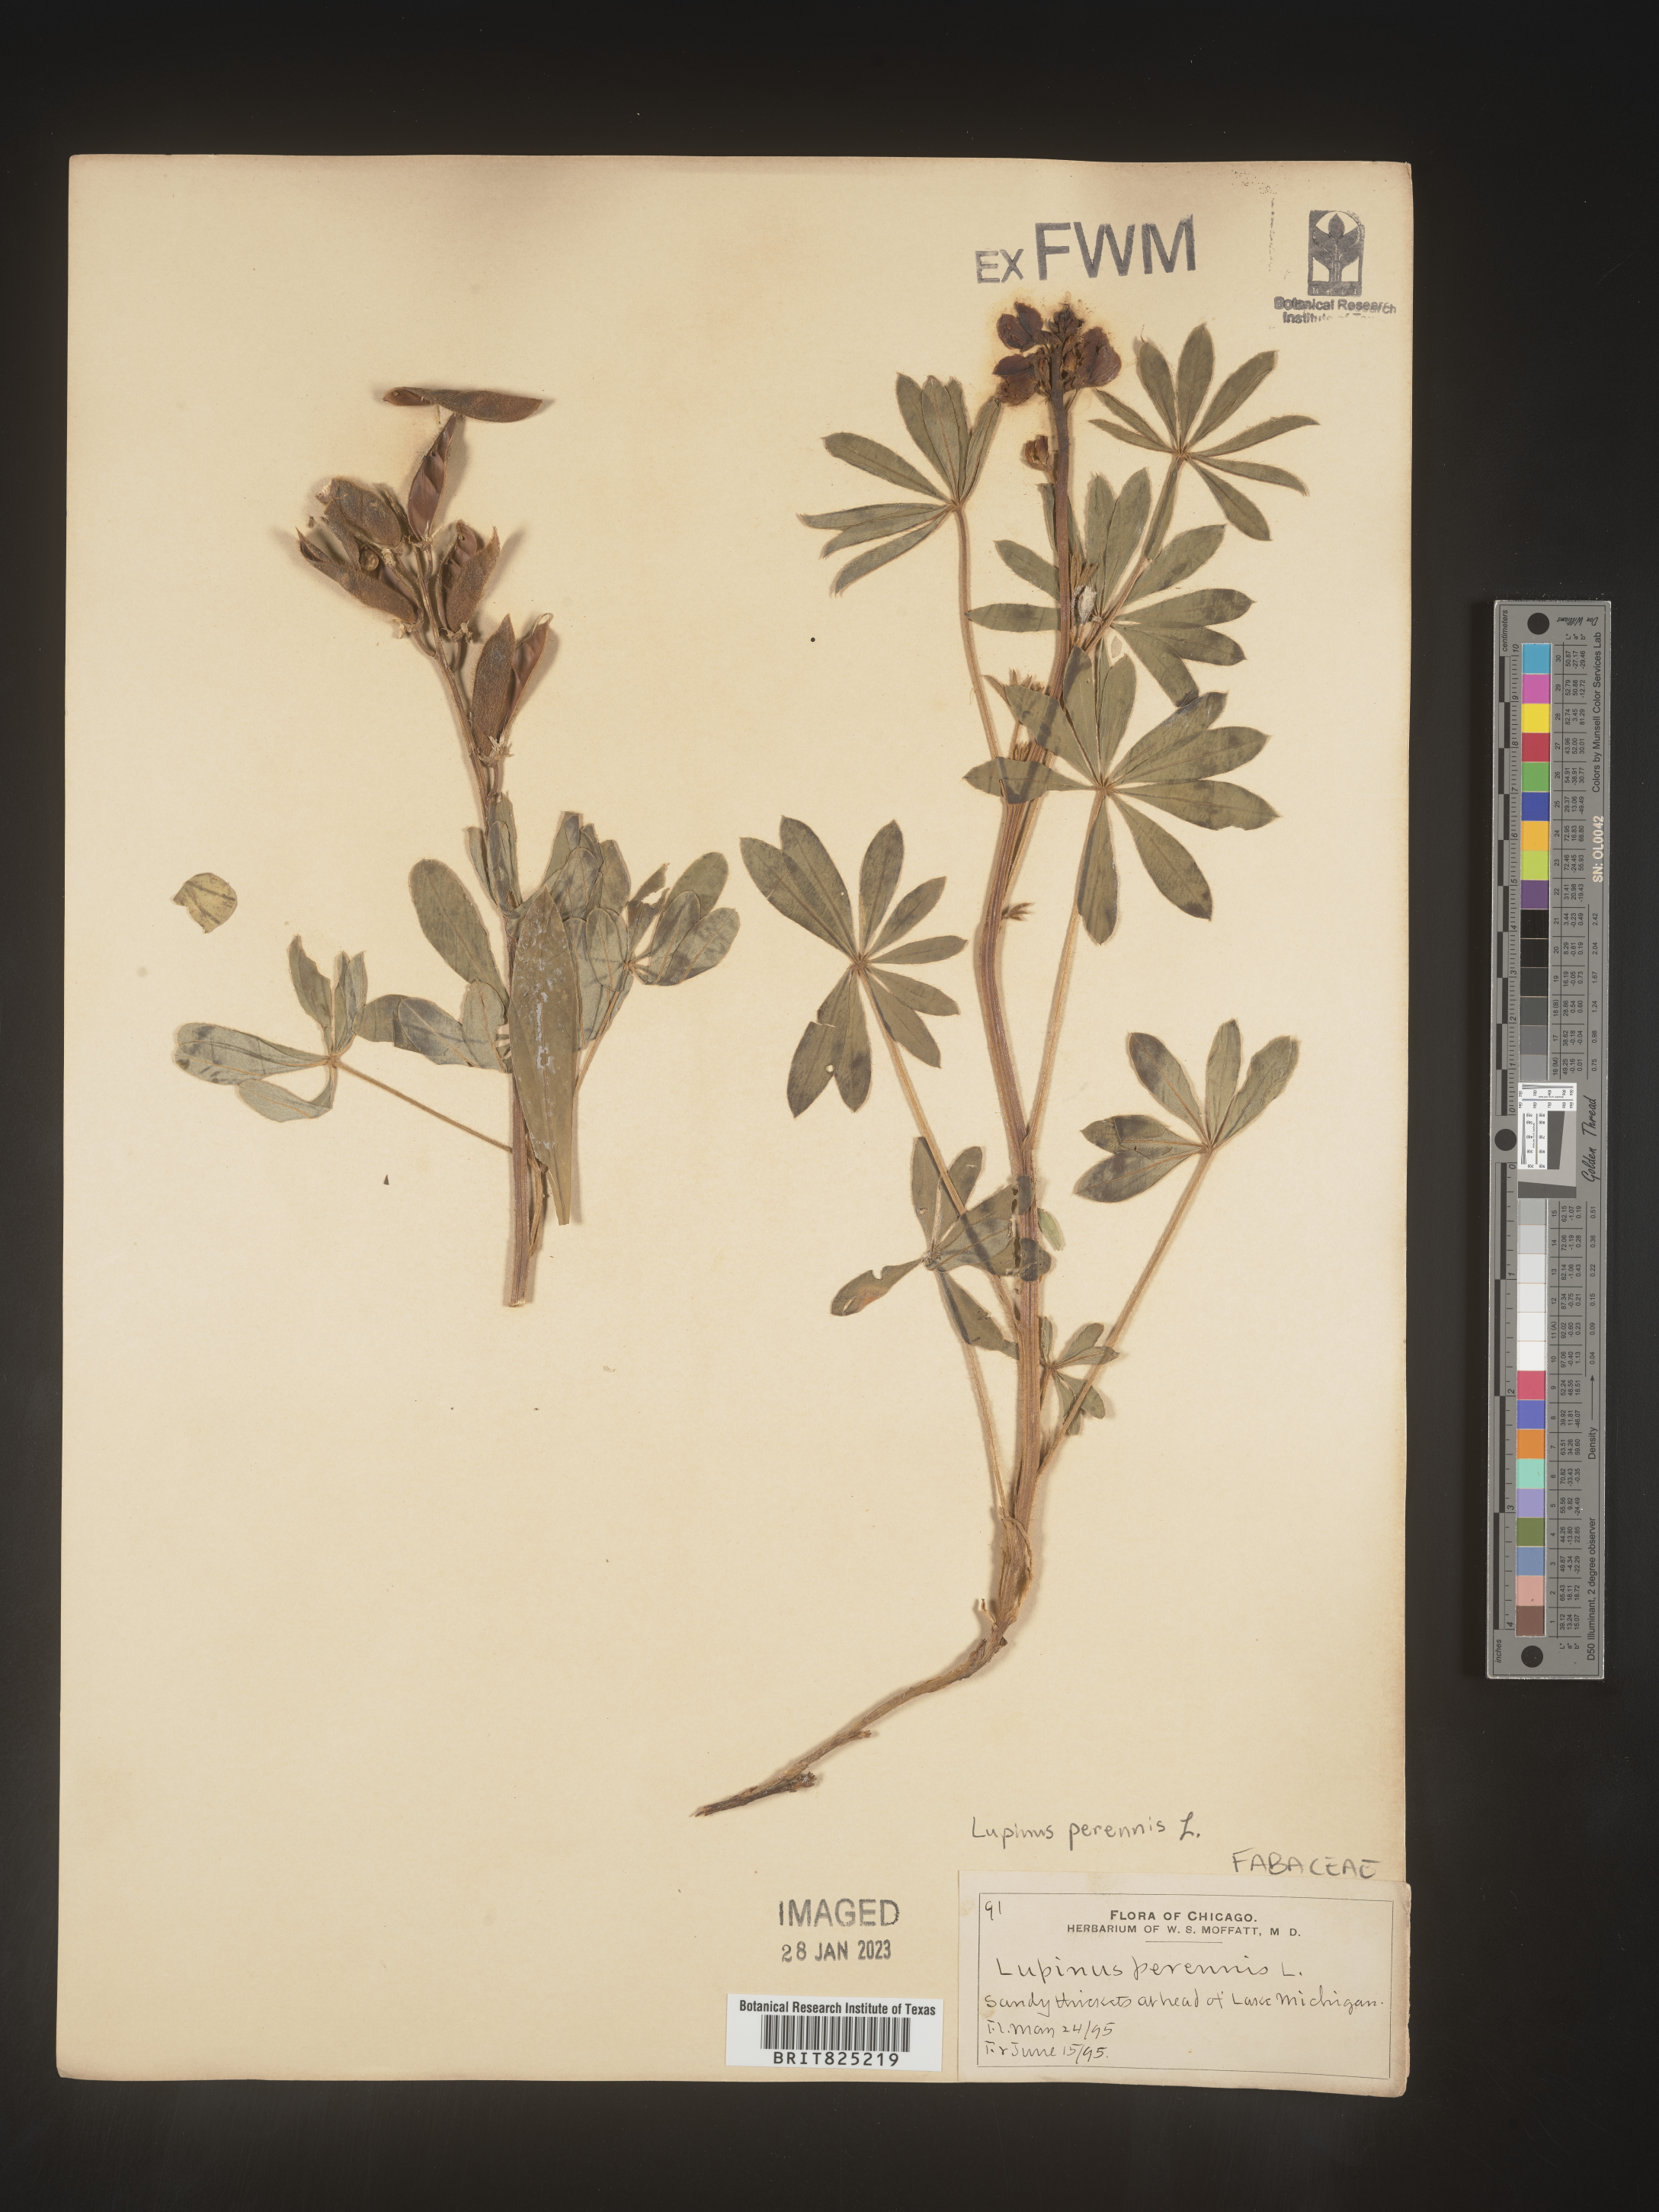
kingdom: Plantae
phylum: Tracheophyta
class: Magnoliopsida
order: Fabales
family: Fabaceae
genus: Lupinus
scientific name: Lupinus perennis
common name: Sundial lupine
